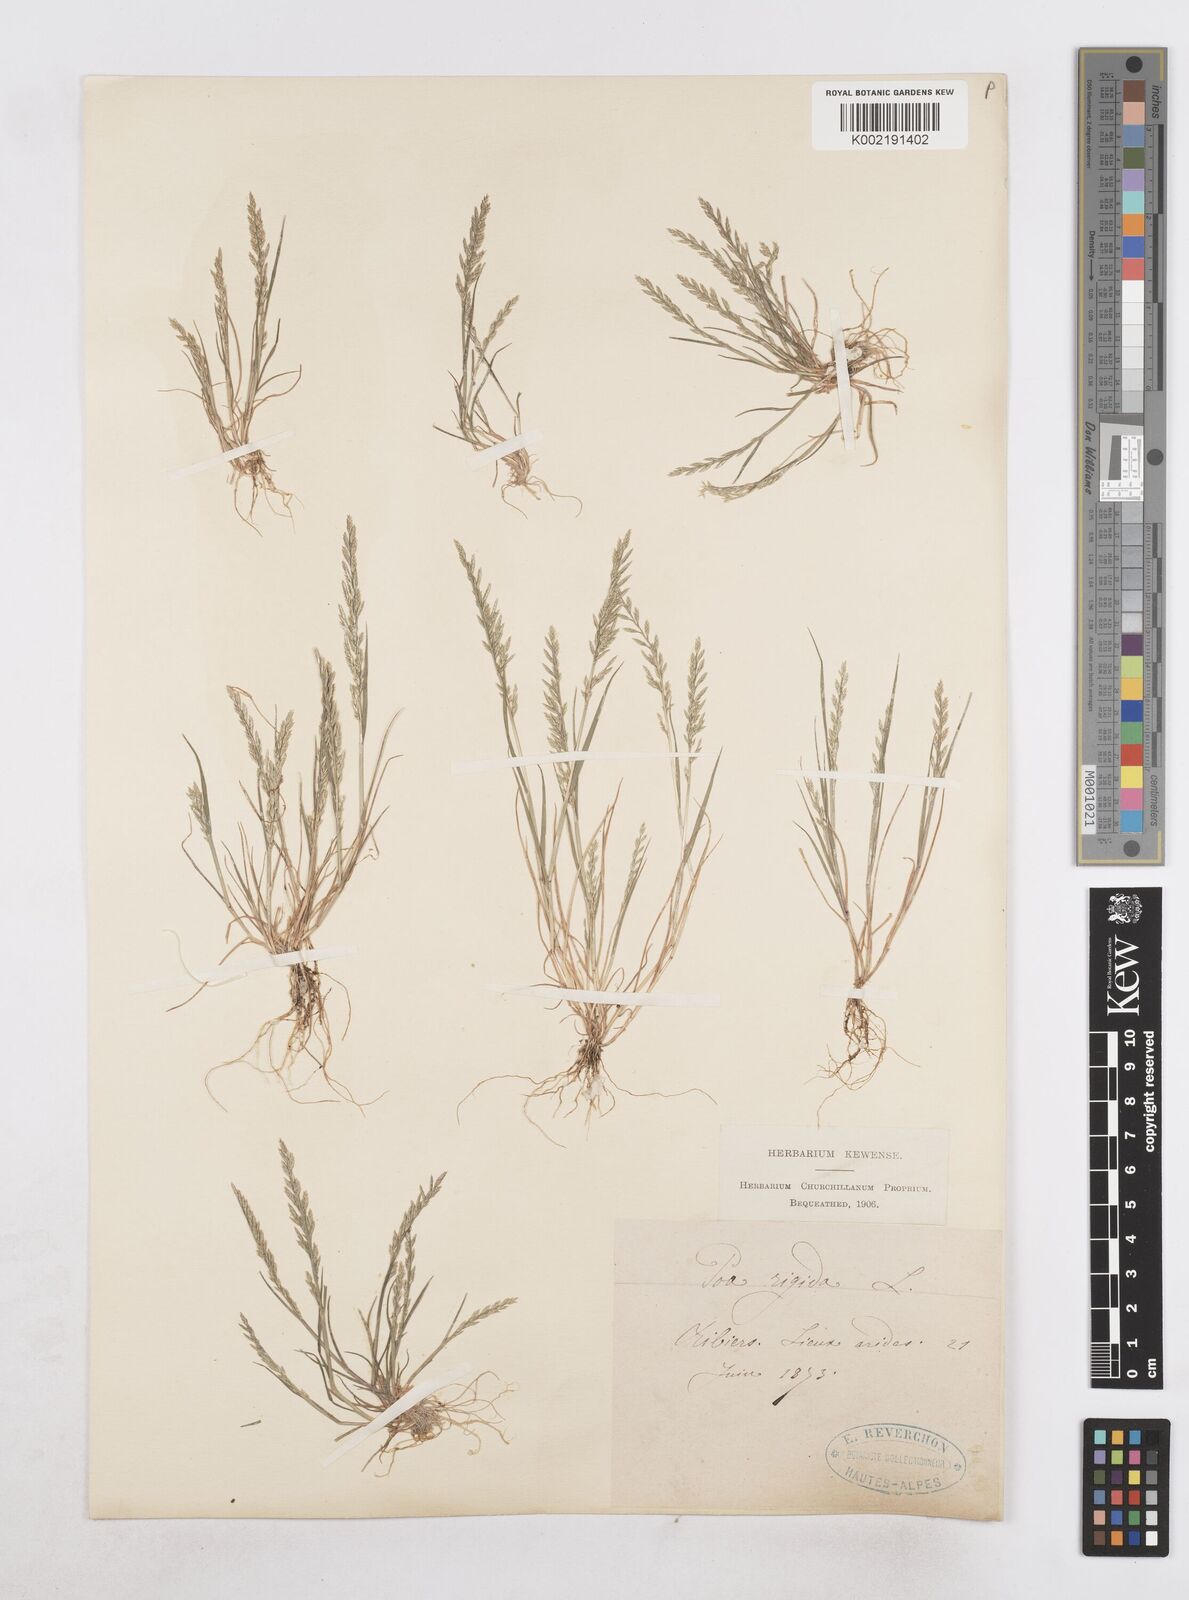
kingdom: Plantae
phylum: Tracheophyta
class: Liliopsida
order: Poales
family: Poaceae
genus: Catapodium
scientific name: Catapodium rigidum
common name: Fern-grass
